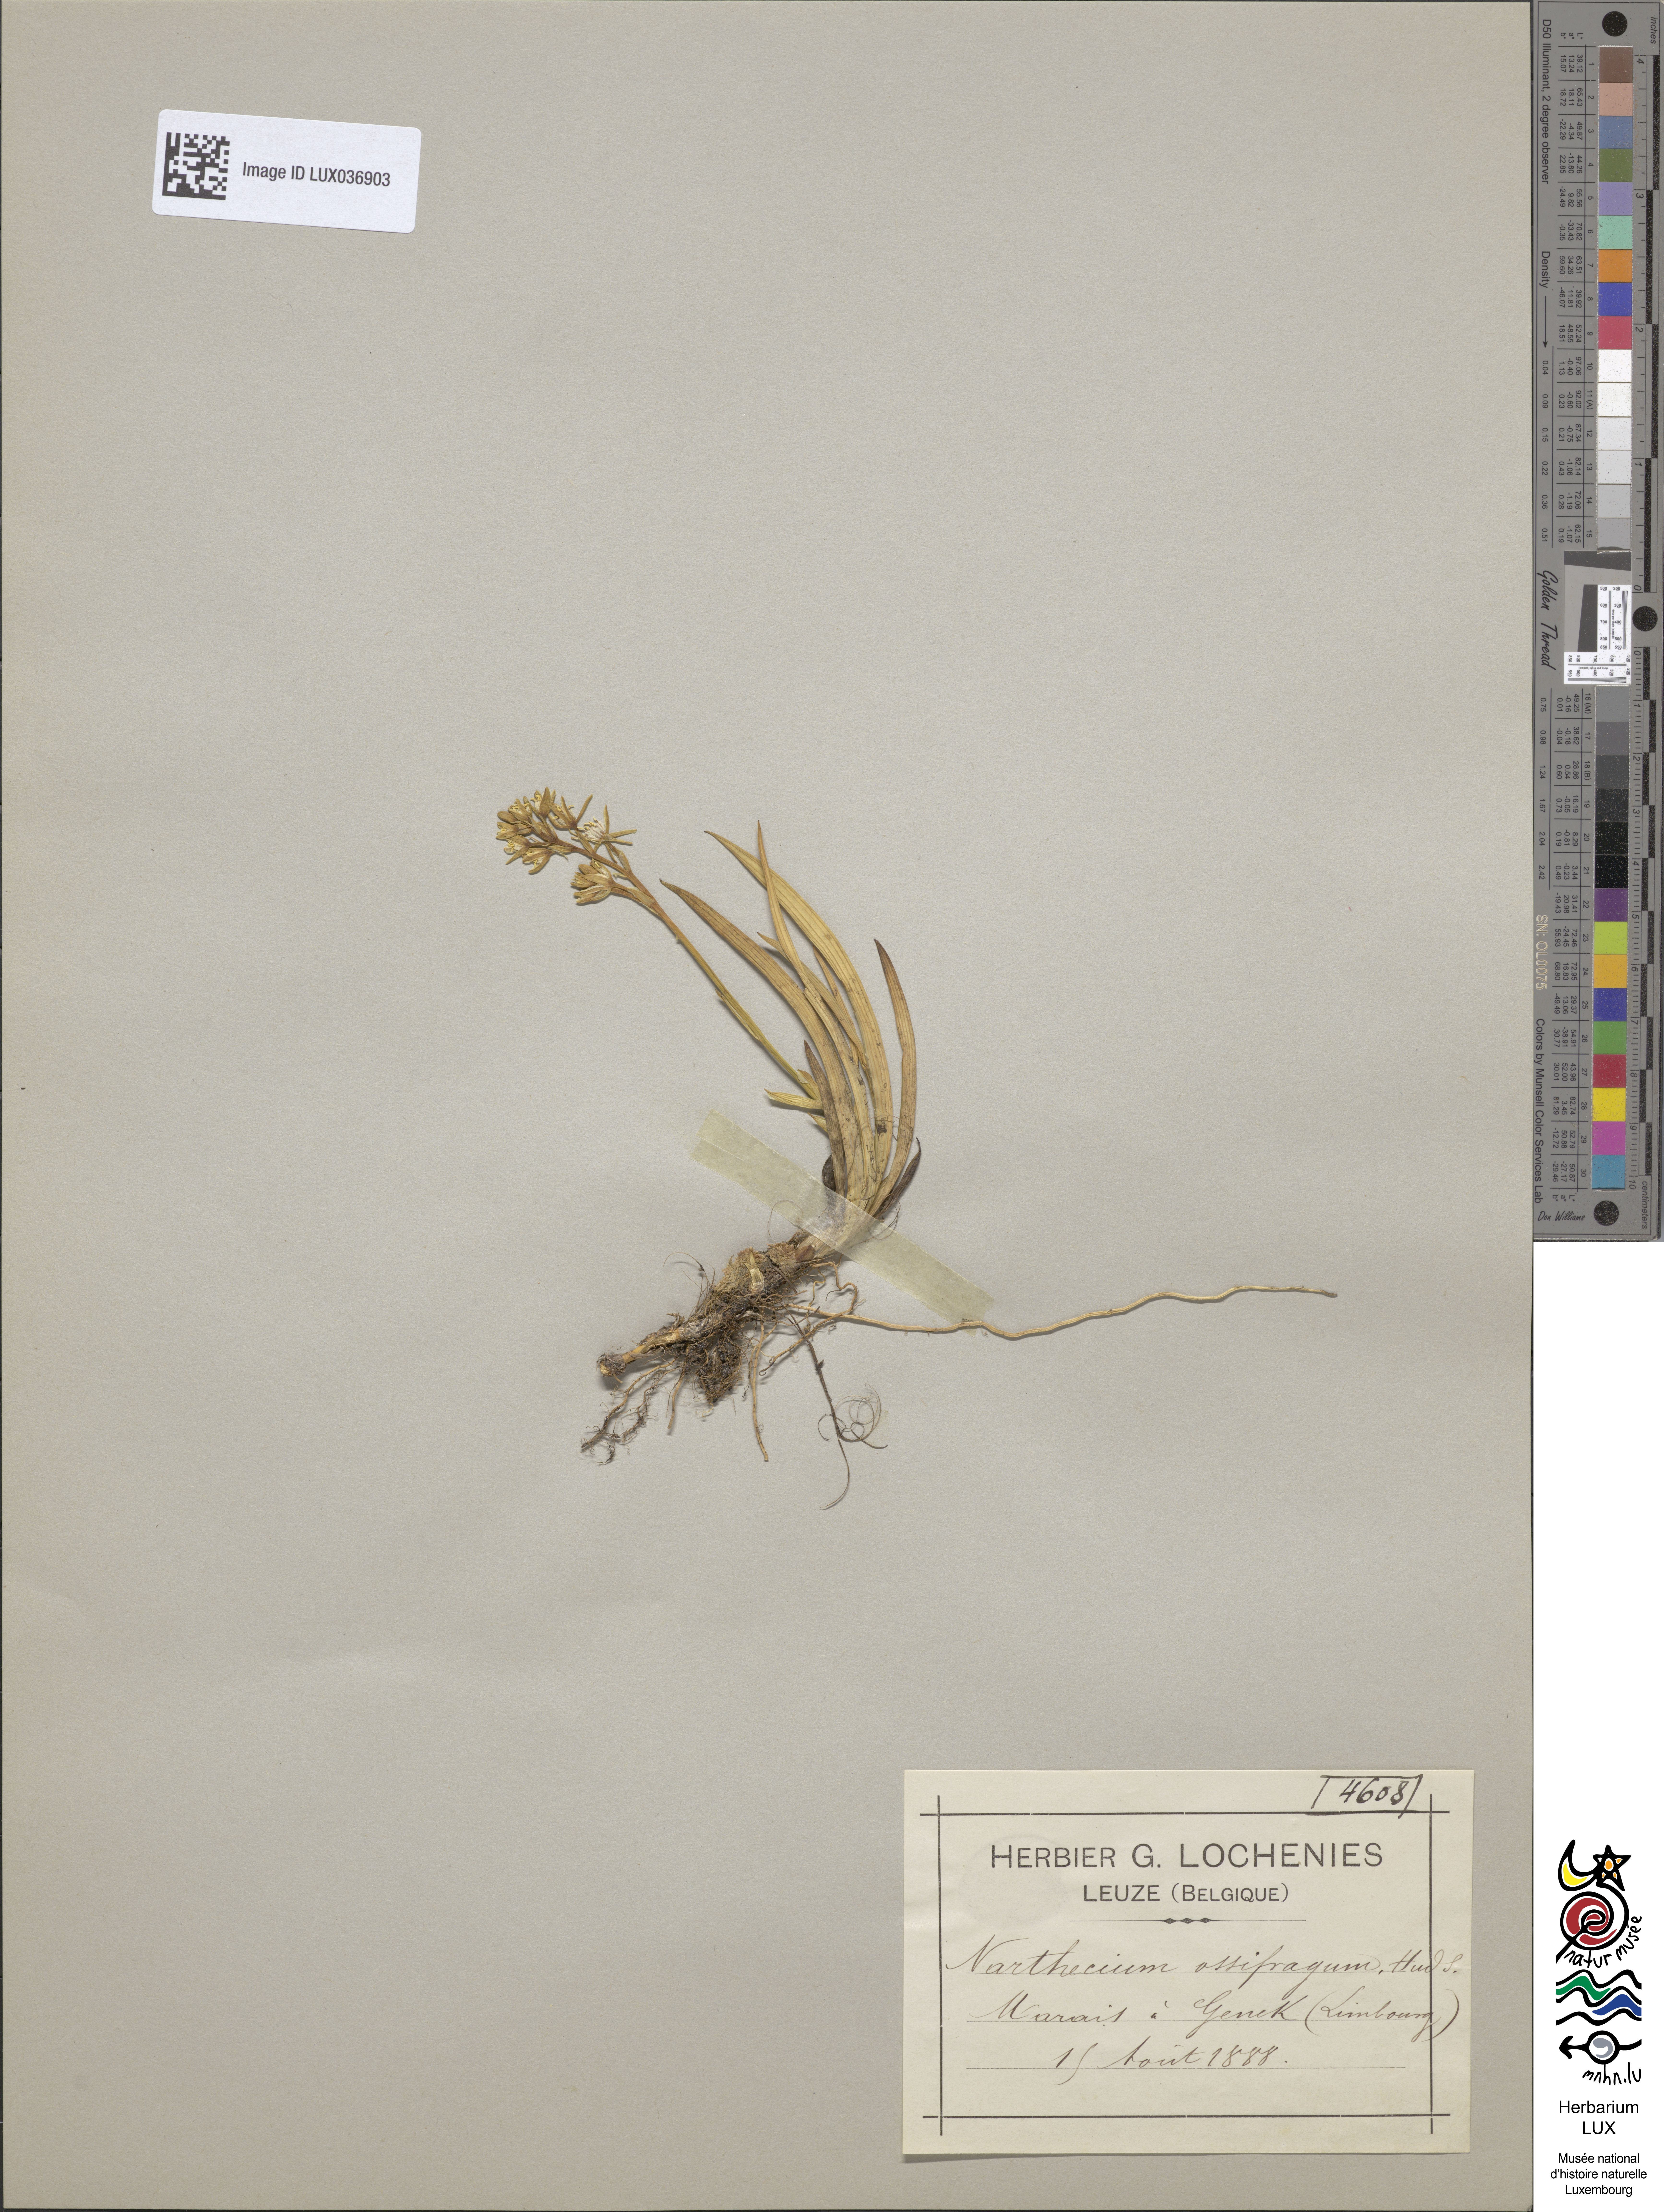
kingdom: Plantae
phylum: Tracheophyta
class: Liliopsida
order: Dioscoreales
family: Nartheciaceae
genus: Narthecium
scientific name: Narthecium ossifragum
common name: Bog asphodel
